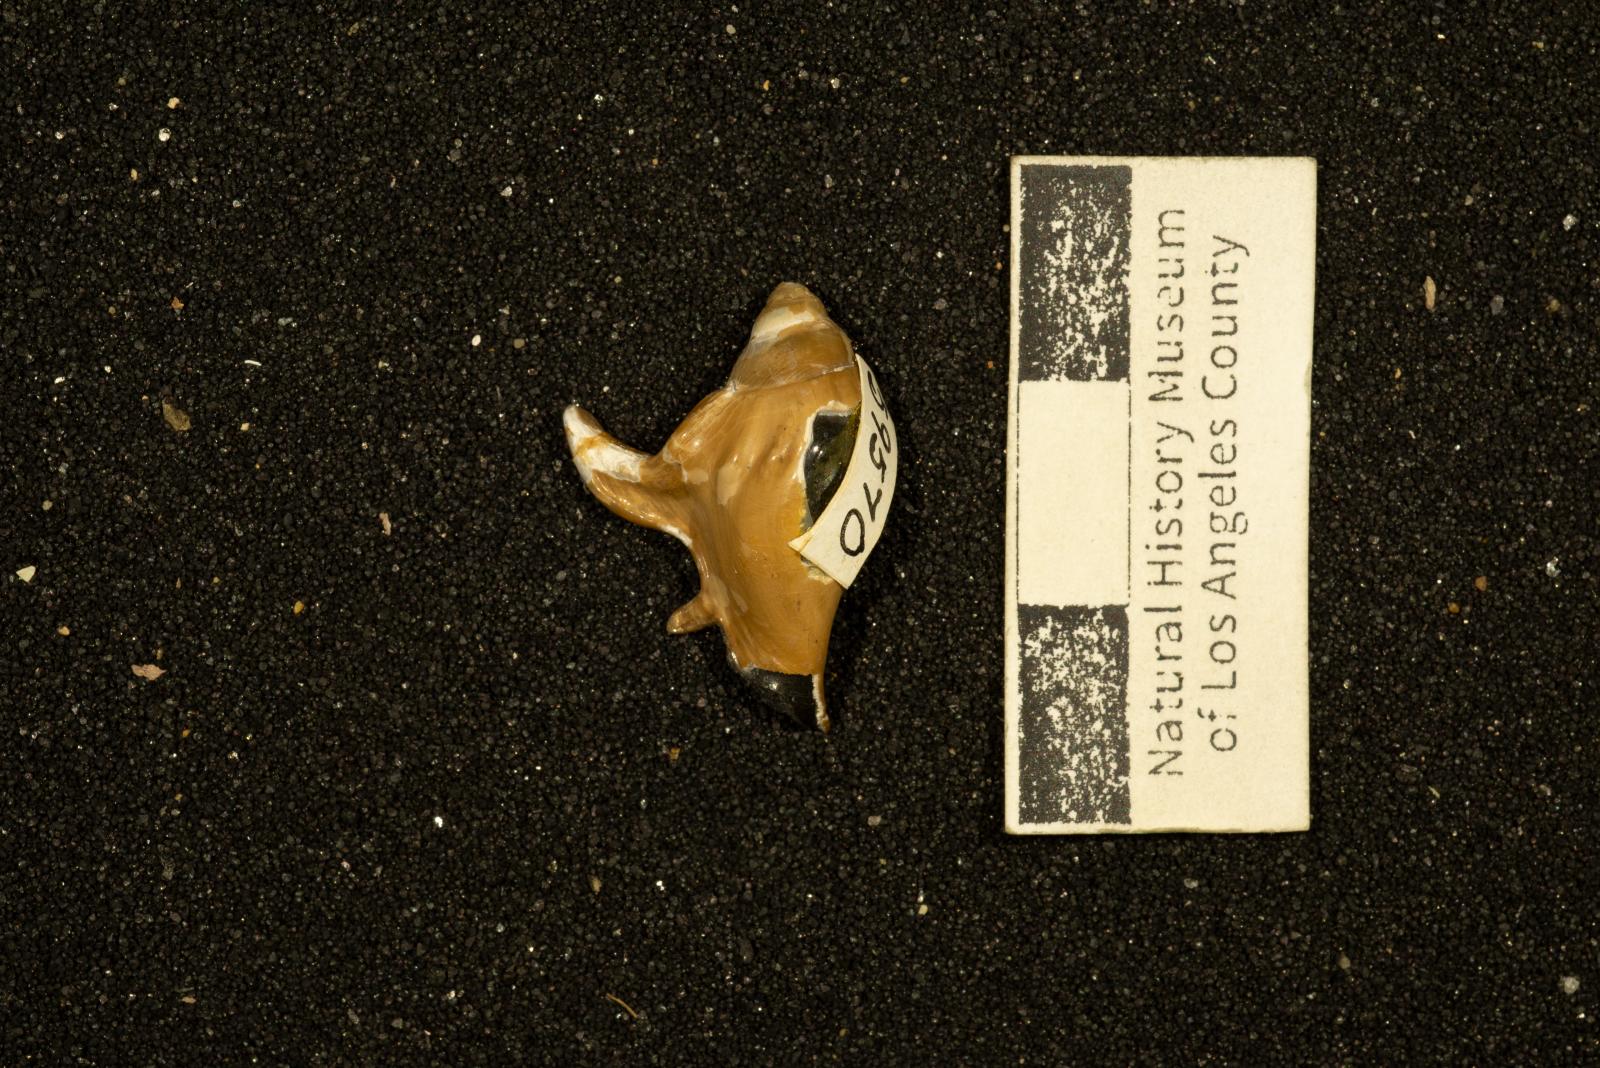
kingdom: Animalia
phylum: Mollusca
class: Gastropoda
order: Littorinimorpha
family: Aporrhaidae
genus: Pyktes
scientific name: Pyktes daiphron
